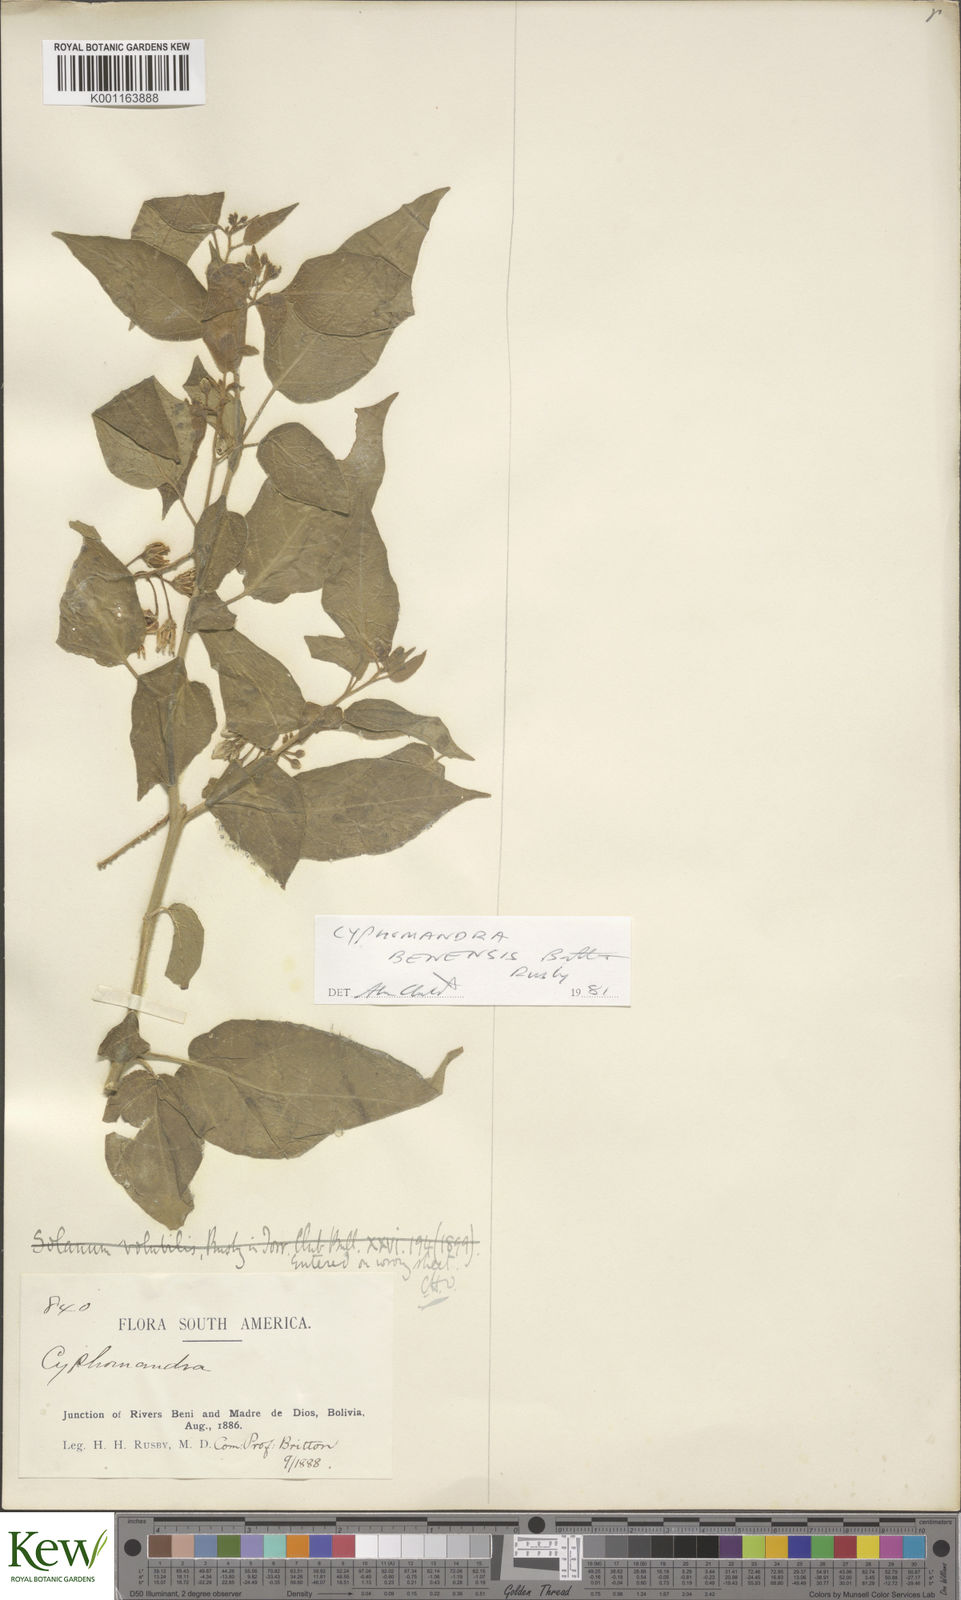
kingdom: Plantae
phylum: Tracheophyta
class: Magnoliopsida
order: Solanales
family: Solanaceae
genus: Solanum
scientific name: Solanum exiguum
